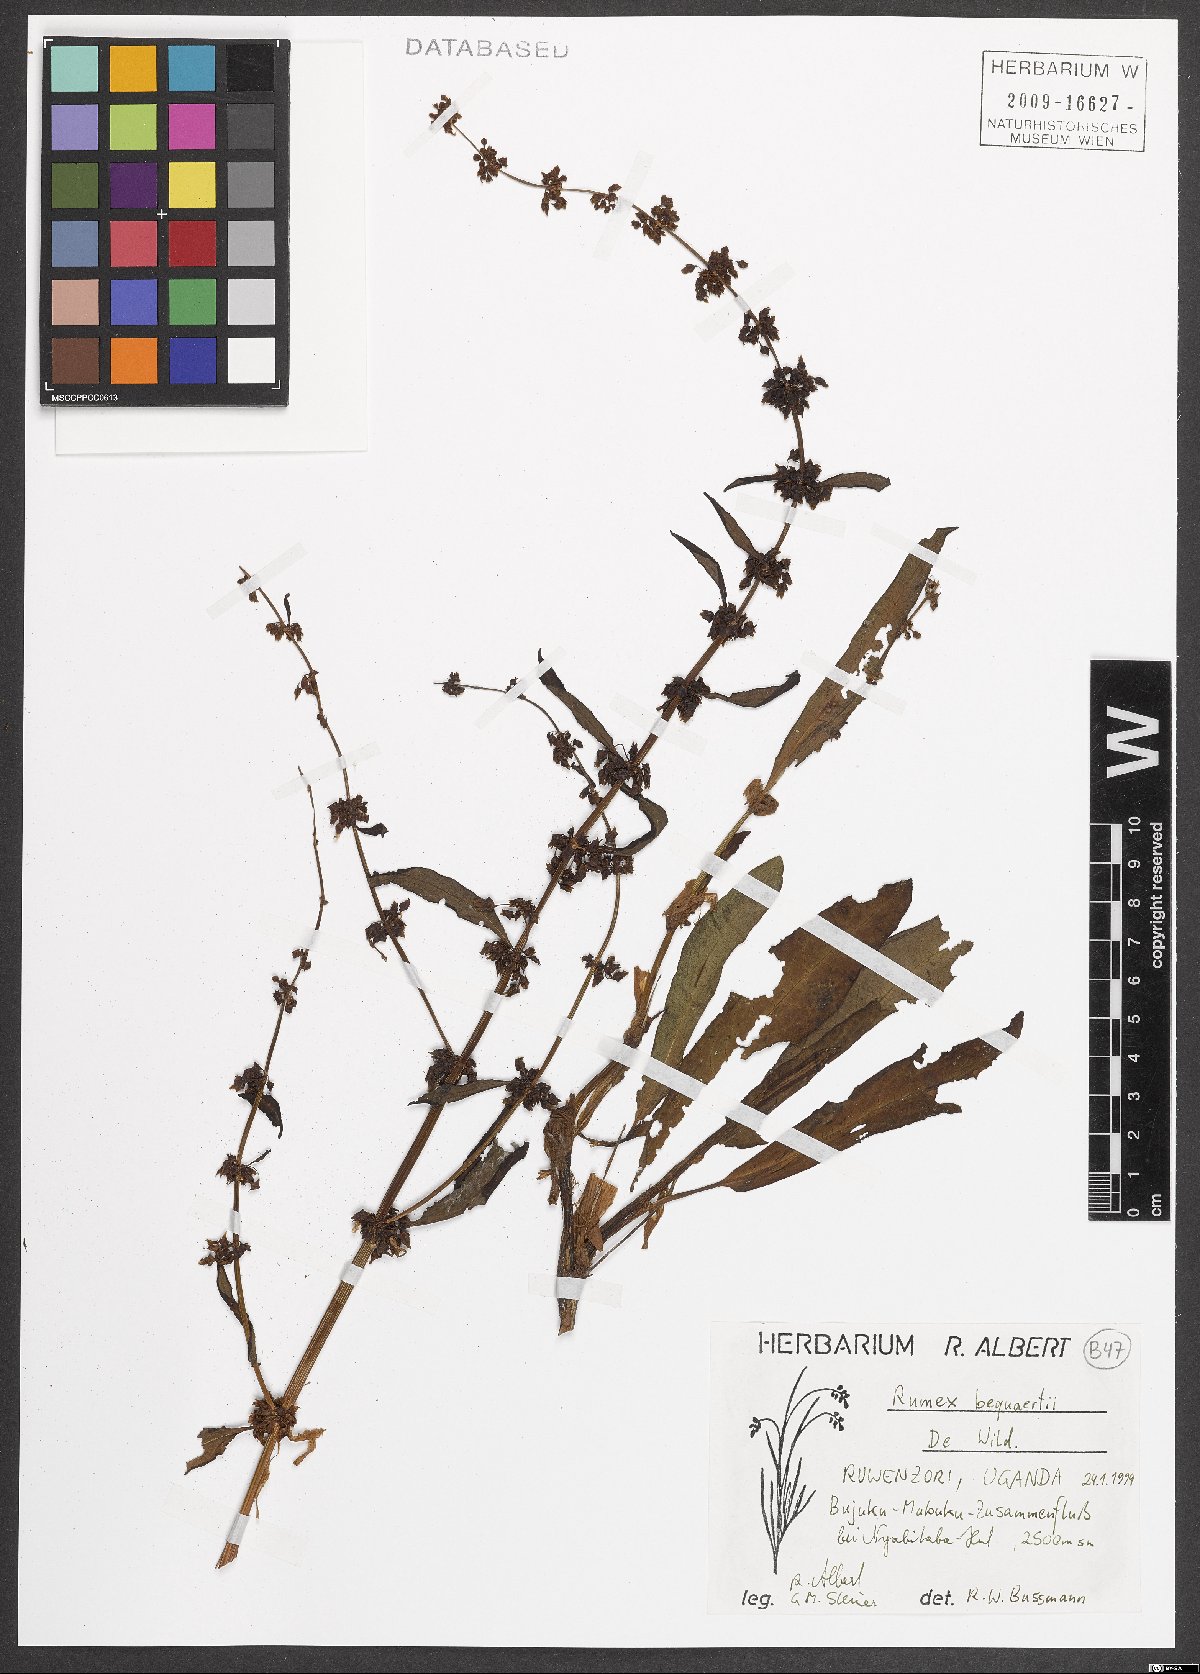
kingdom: Plantae
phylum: Tracheophyta
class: Magnoliopsida
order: Caryophyllales
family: Polygonaceae
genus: Rumex
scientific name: Rumex bequaertii
